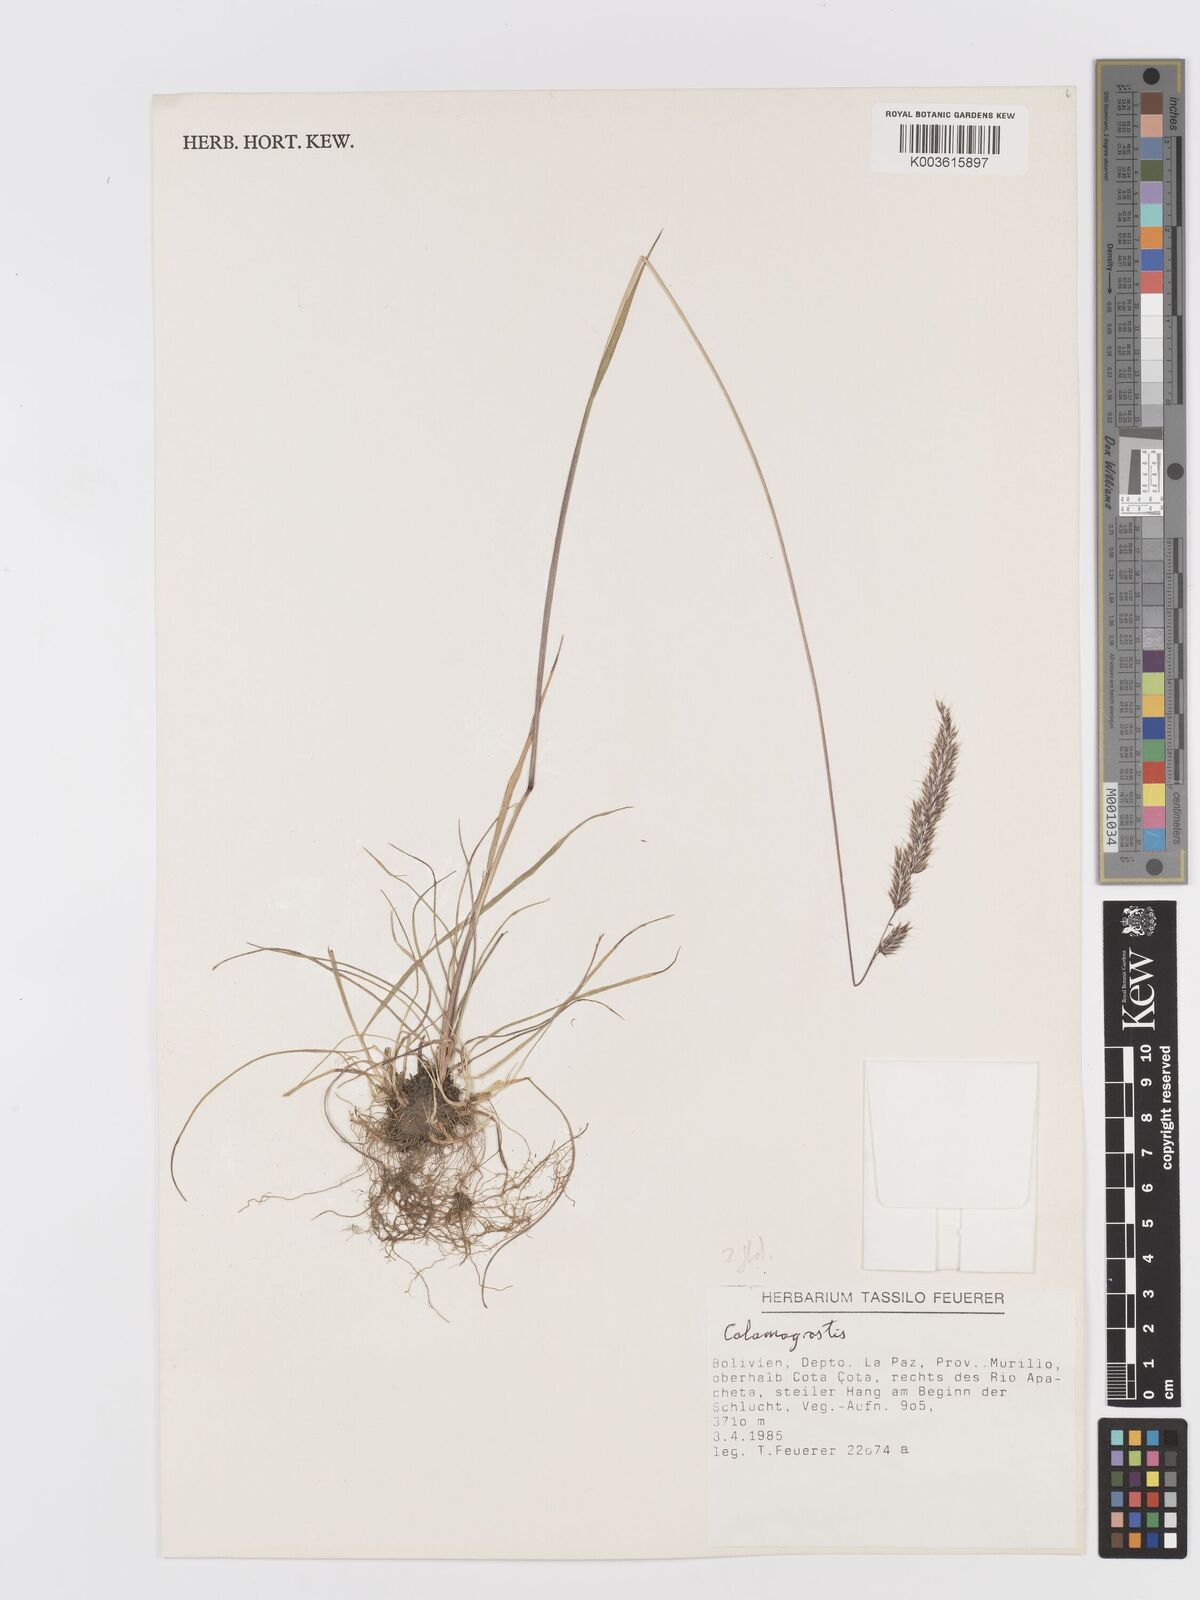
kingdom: Plantae
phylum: Tracheophyta
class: Liliopsida
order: Poales
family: Poaceae
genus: Koeleria
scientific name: Koeleria spicata
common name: Mountain trisetum
